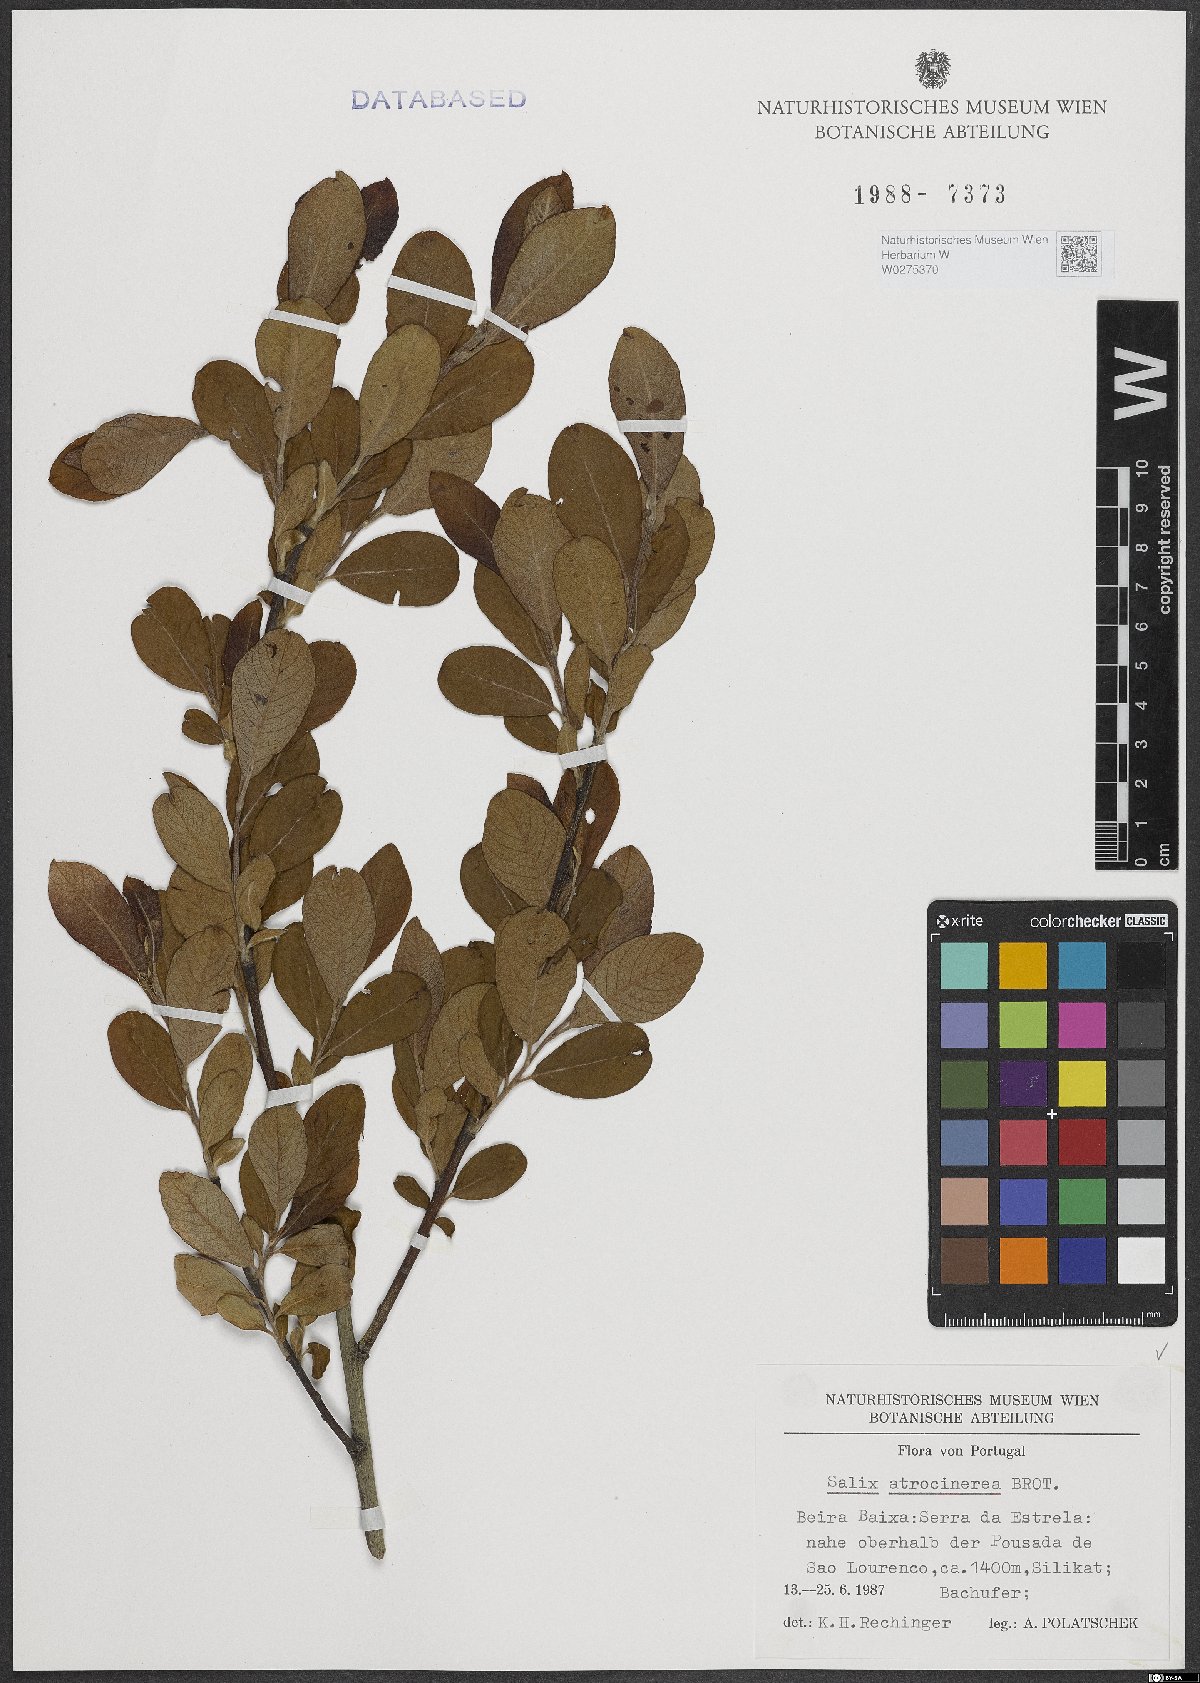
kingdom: Plantae
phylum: Tracheophyta
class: Magnoliopsida
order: Malpighiales
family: Salicaceae
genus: Salix
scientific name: Salix atrocinerea
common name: Rusty willow
